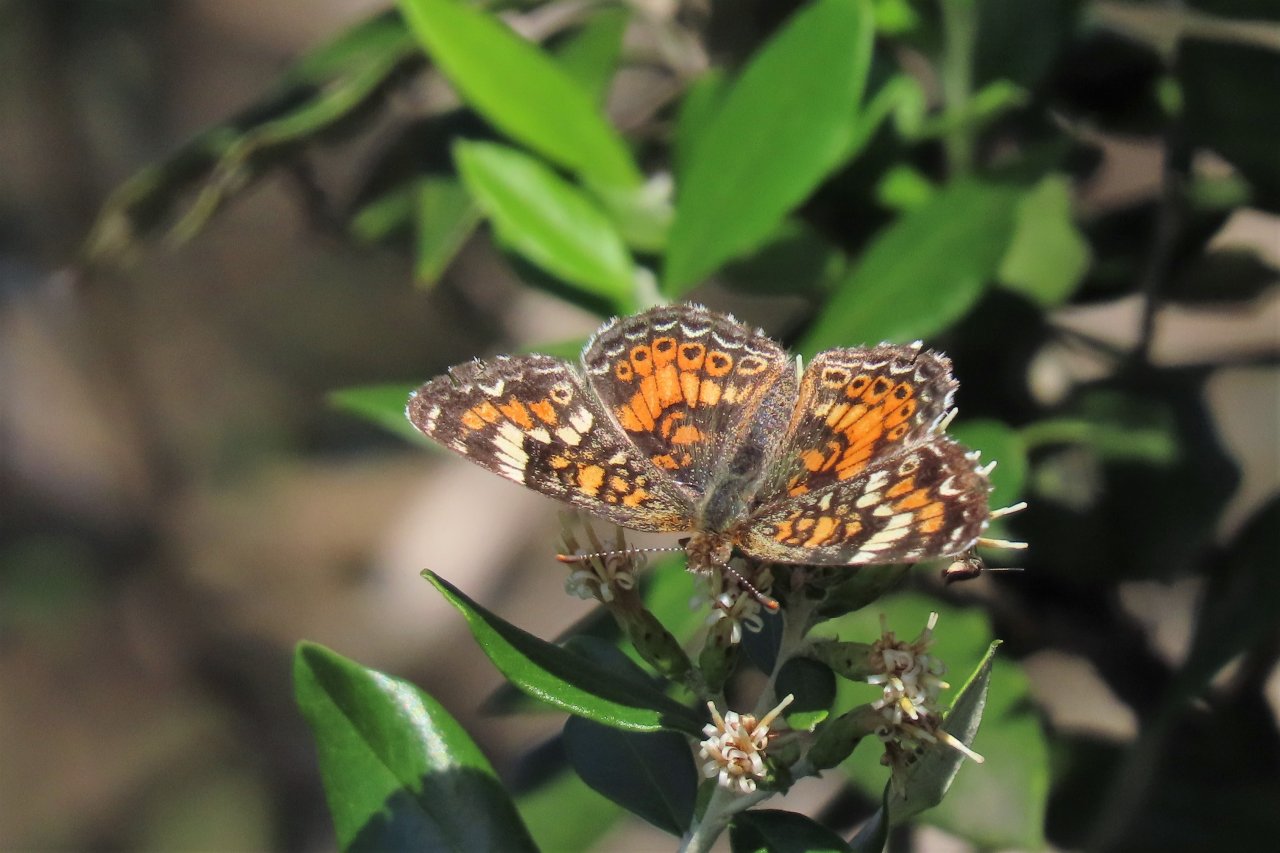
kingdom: Animalia
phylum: Arthropoda
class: Insecta
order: Lepidoptera
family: Nymphalidae
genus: Phyciodes
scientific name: Phyciodes phaon
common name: Phaon Crescent
